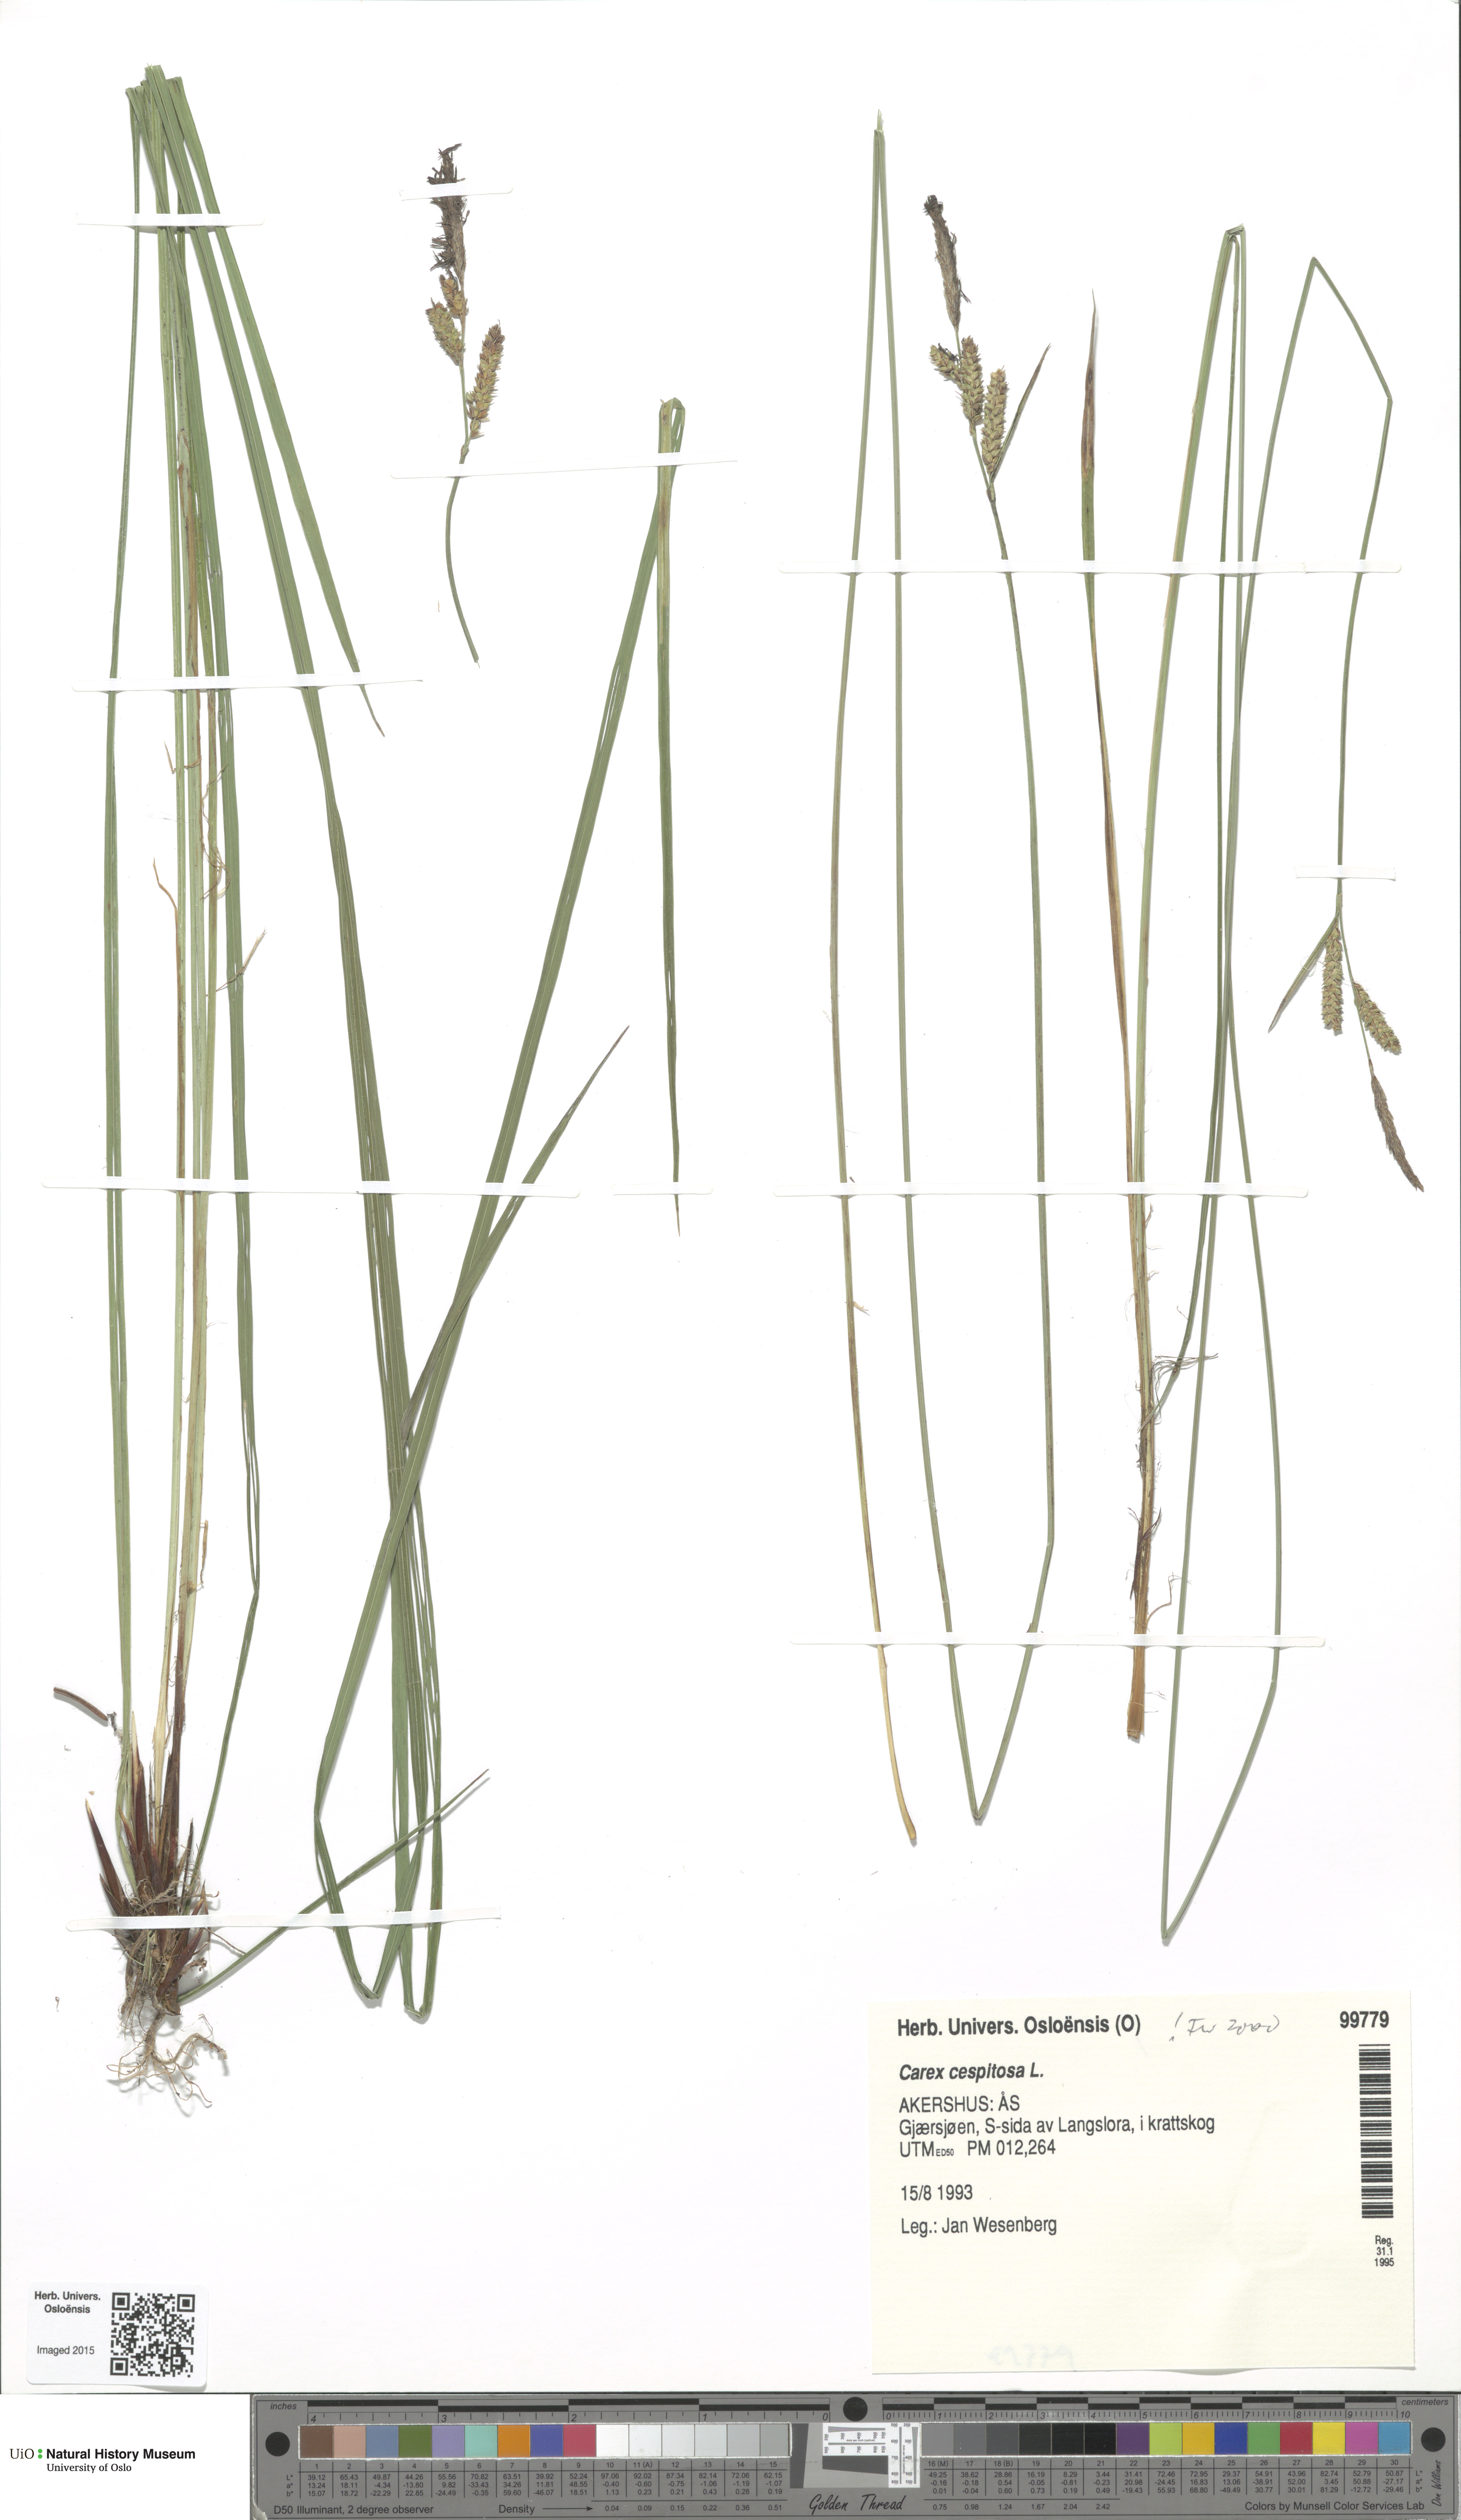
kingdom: Plantae
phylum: Tracheophyta
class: Liliopsida
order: Poales
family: Cyperaceae
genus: Carex
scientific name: Carex cespitosa
